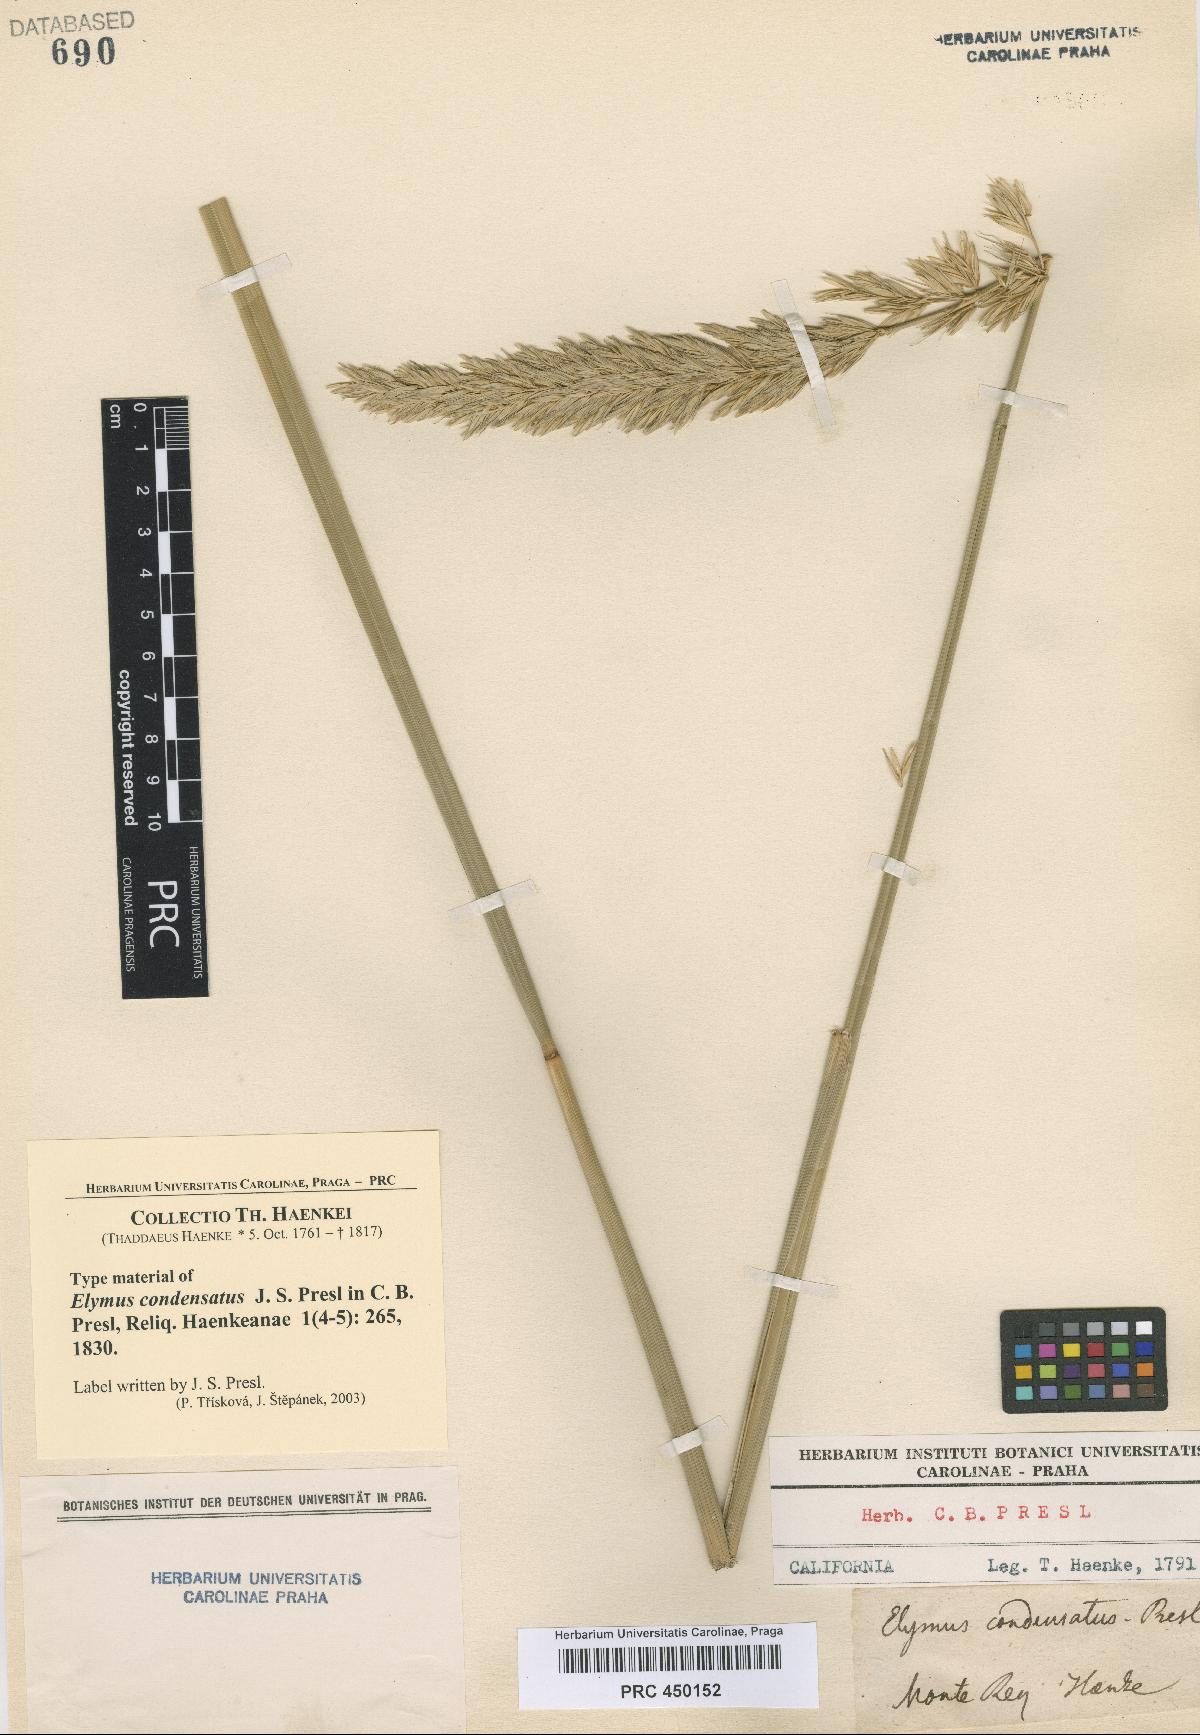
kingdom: Plantae
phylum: Tracheophyta
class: Liliopsida
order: Poales
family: Poaceae
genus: Leymus
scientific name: Leymus condensatus
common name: Giant wild rye
